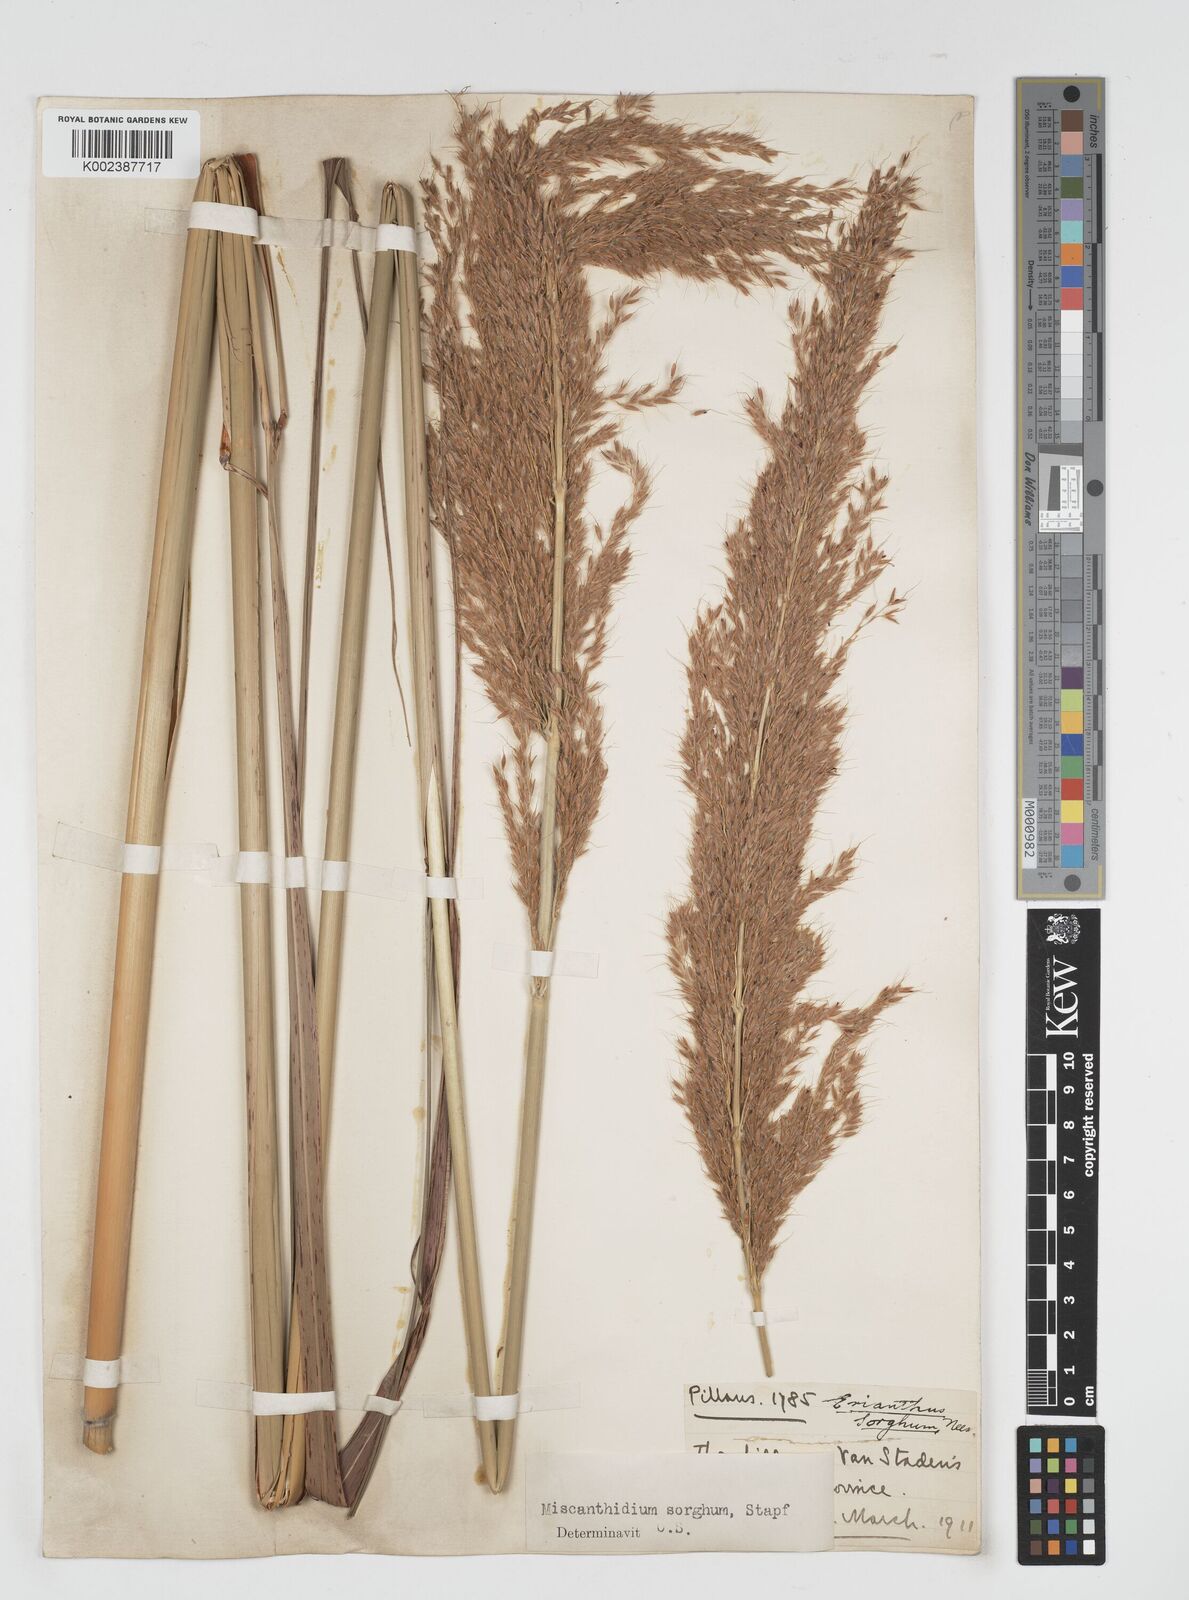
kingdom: Plantae
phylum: Tracheophyta
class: Liliopsida
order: Poales
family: Poaceae
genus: Miscanthus
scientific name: Miscanthus ecklonii
